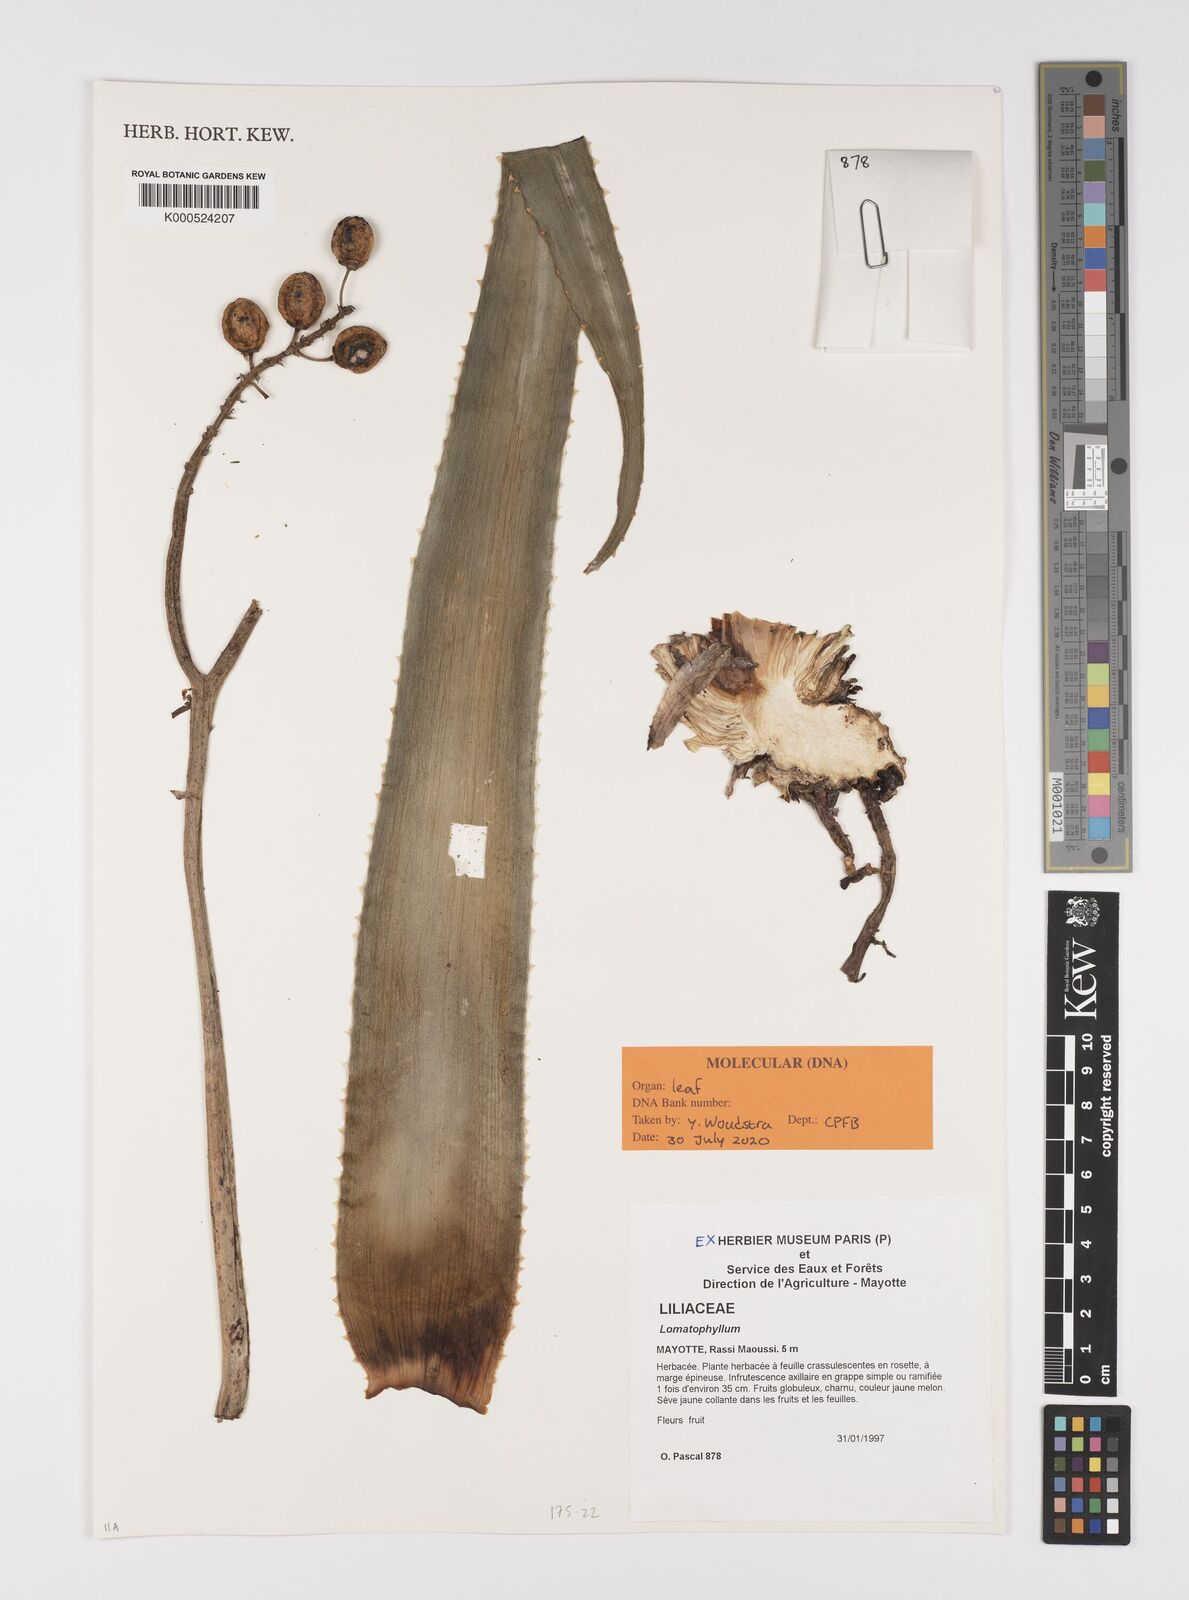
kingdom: Plantae
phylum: Tracheophyta
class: Liliopsida
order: Asparagales
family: Asphodelaceae
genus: Aloe
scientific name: Aloe
